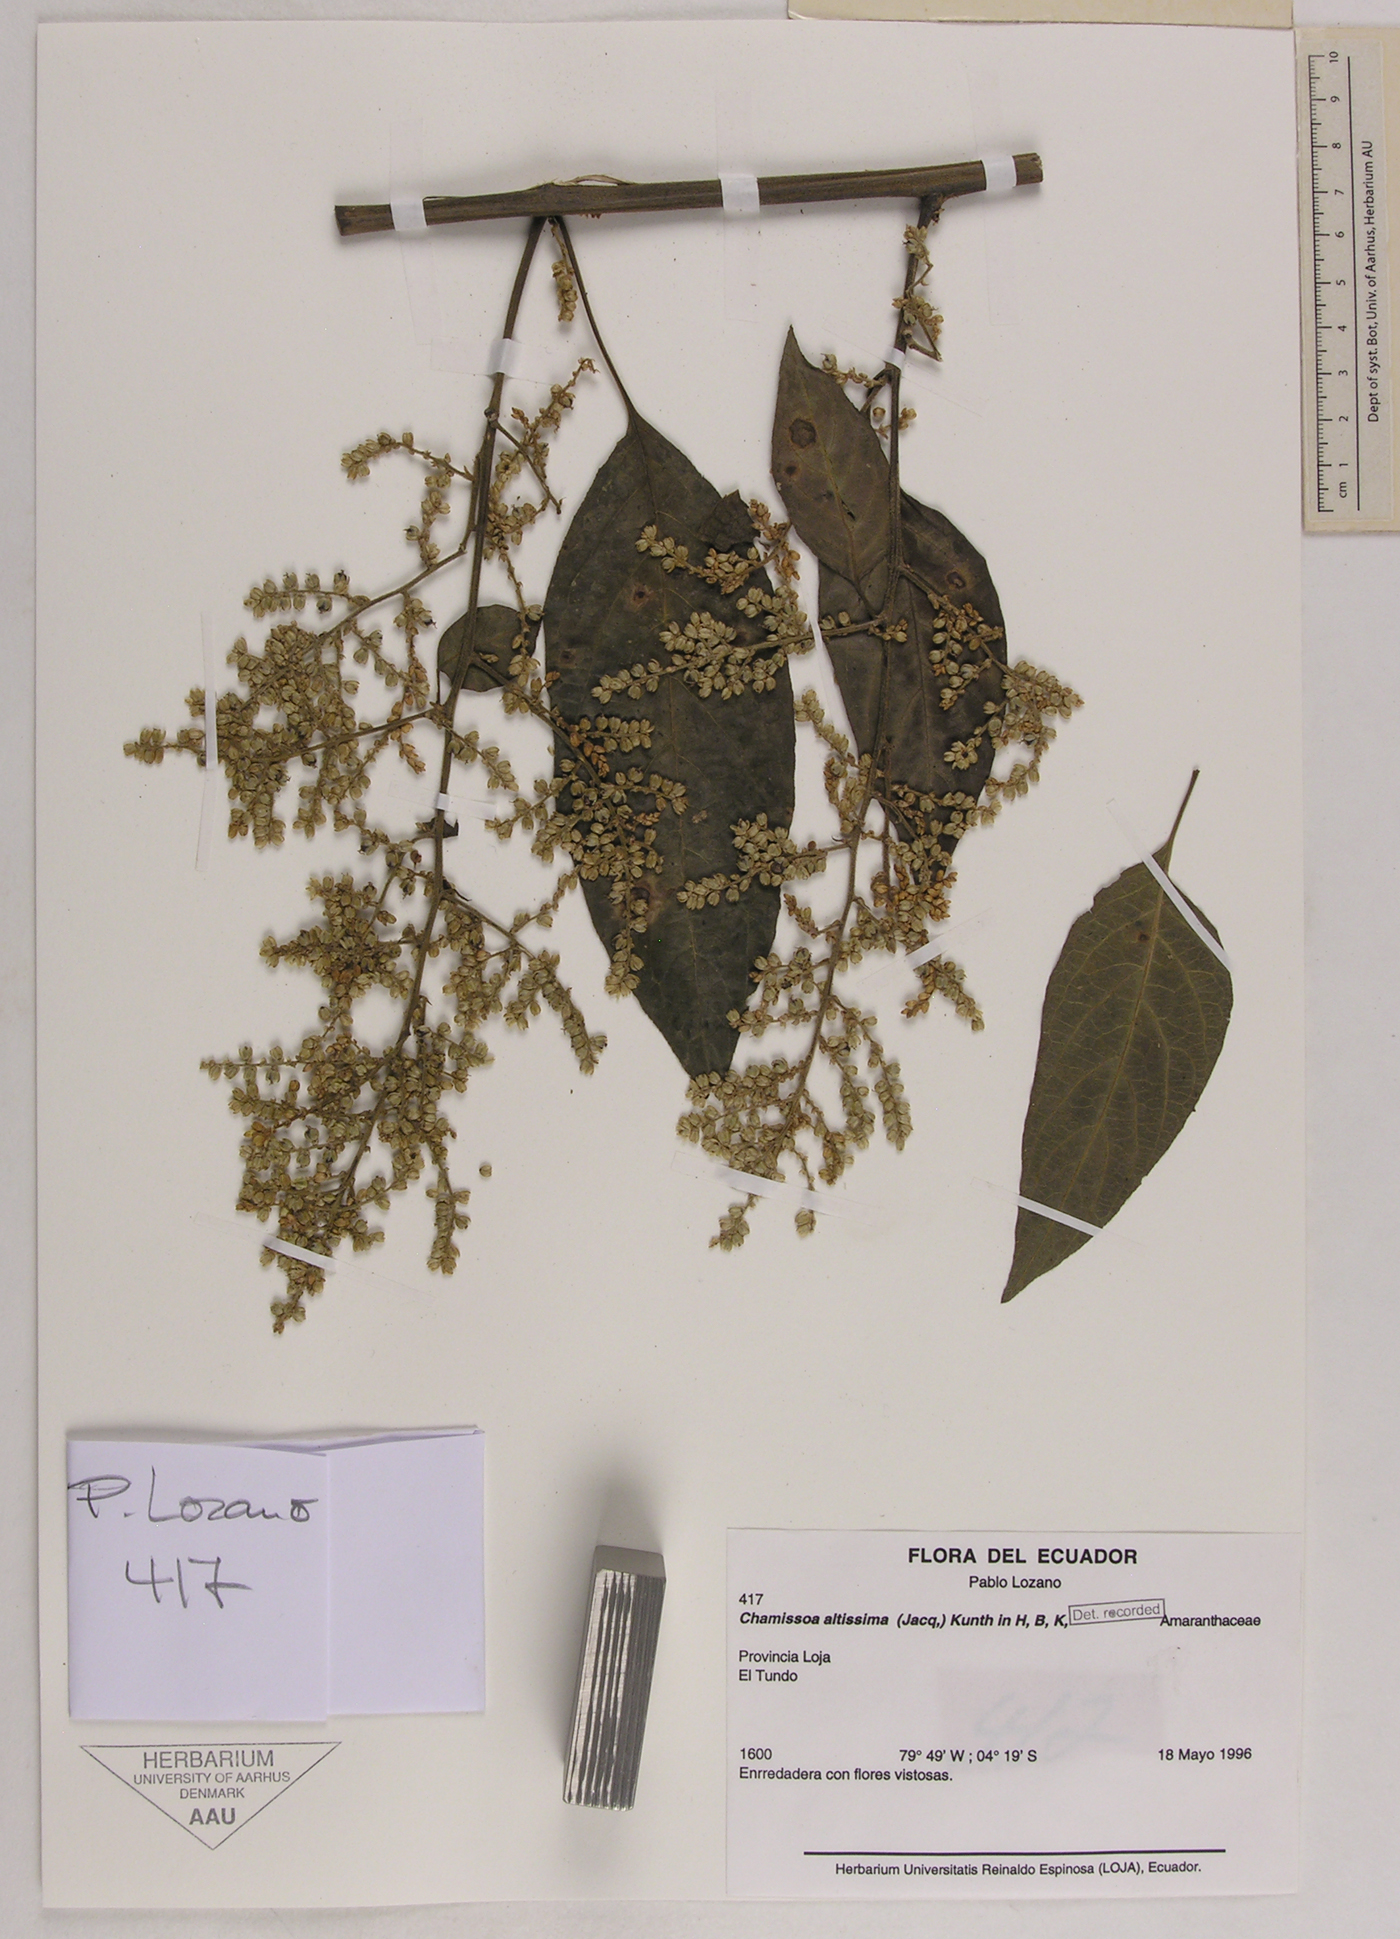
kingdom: Plantae
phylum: Tracheophyta
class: Magnoliopsida
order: Caryophyllales
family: Amaranthaceae
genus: Chamissoa
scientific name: Chamissoa altissima
